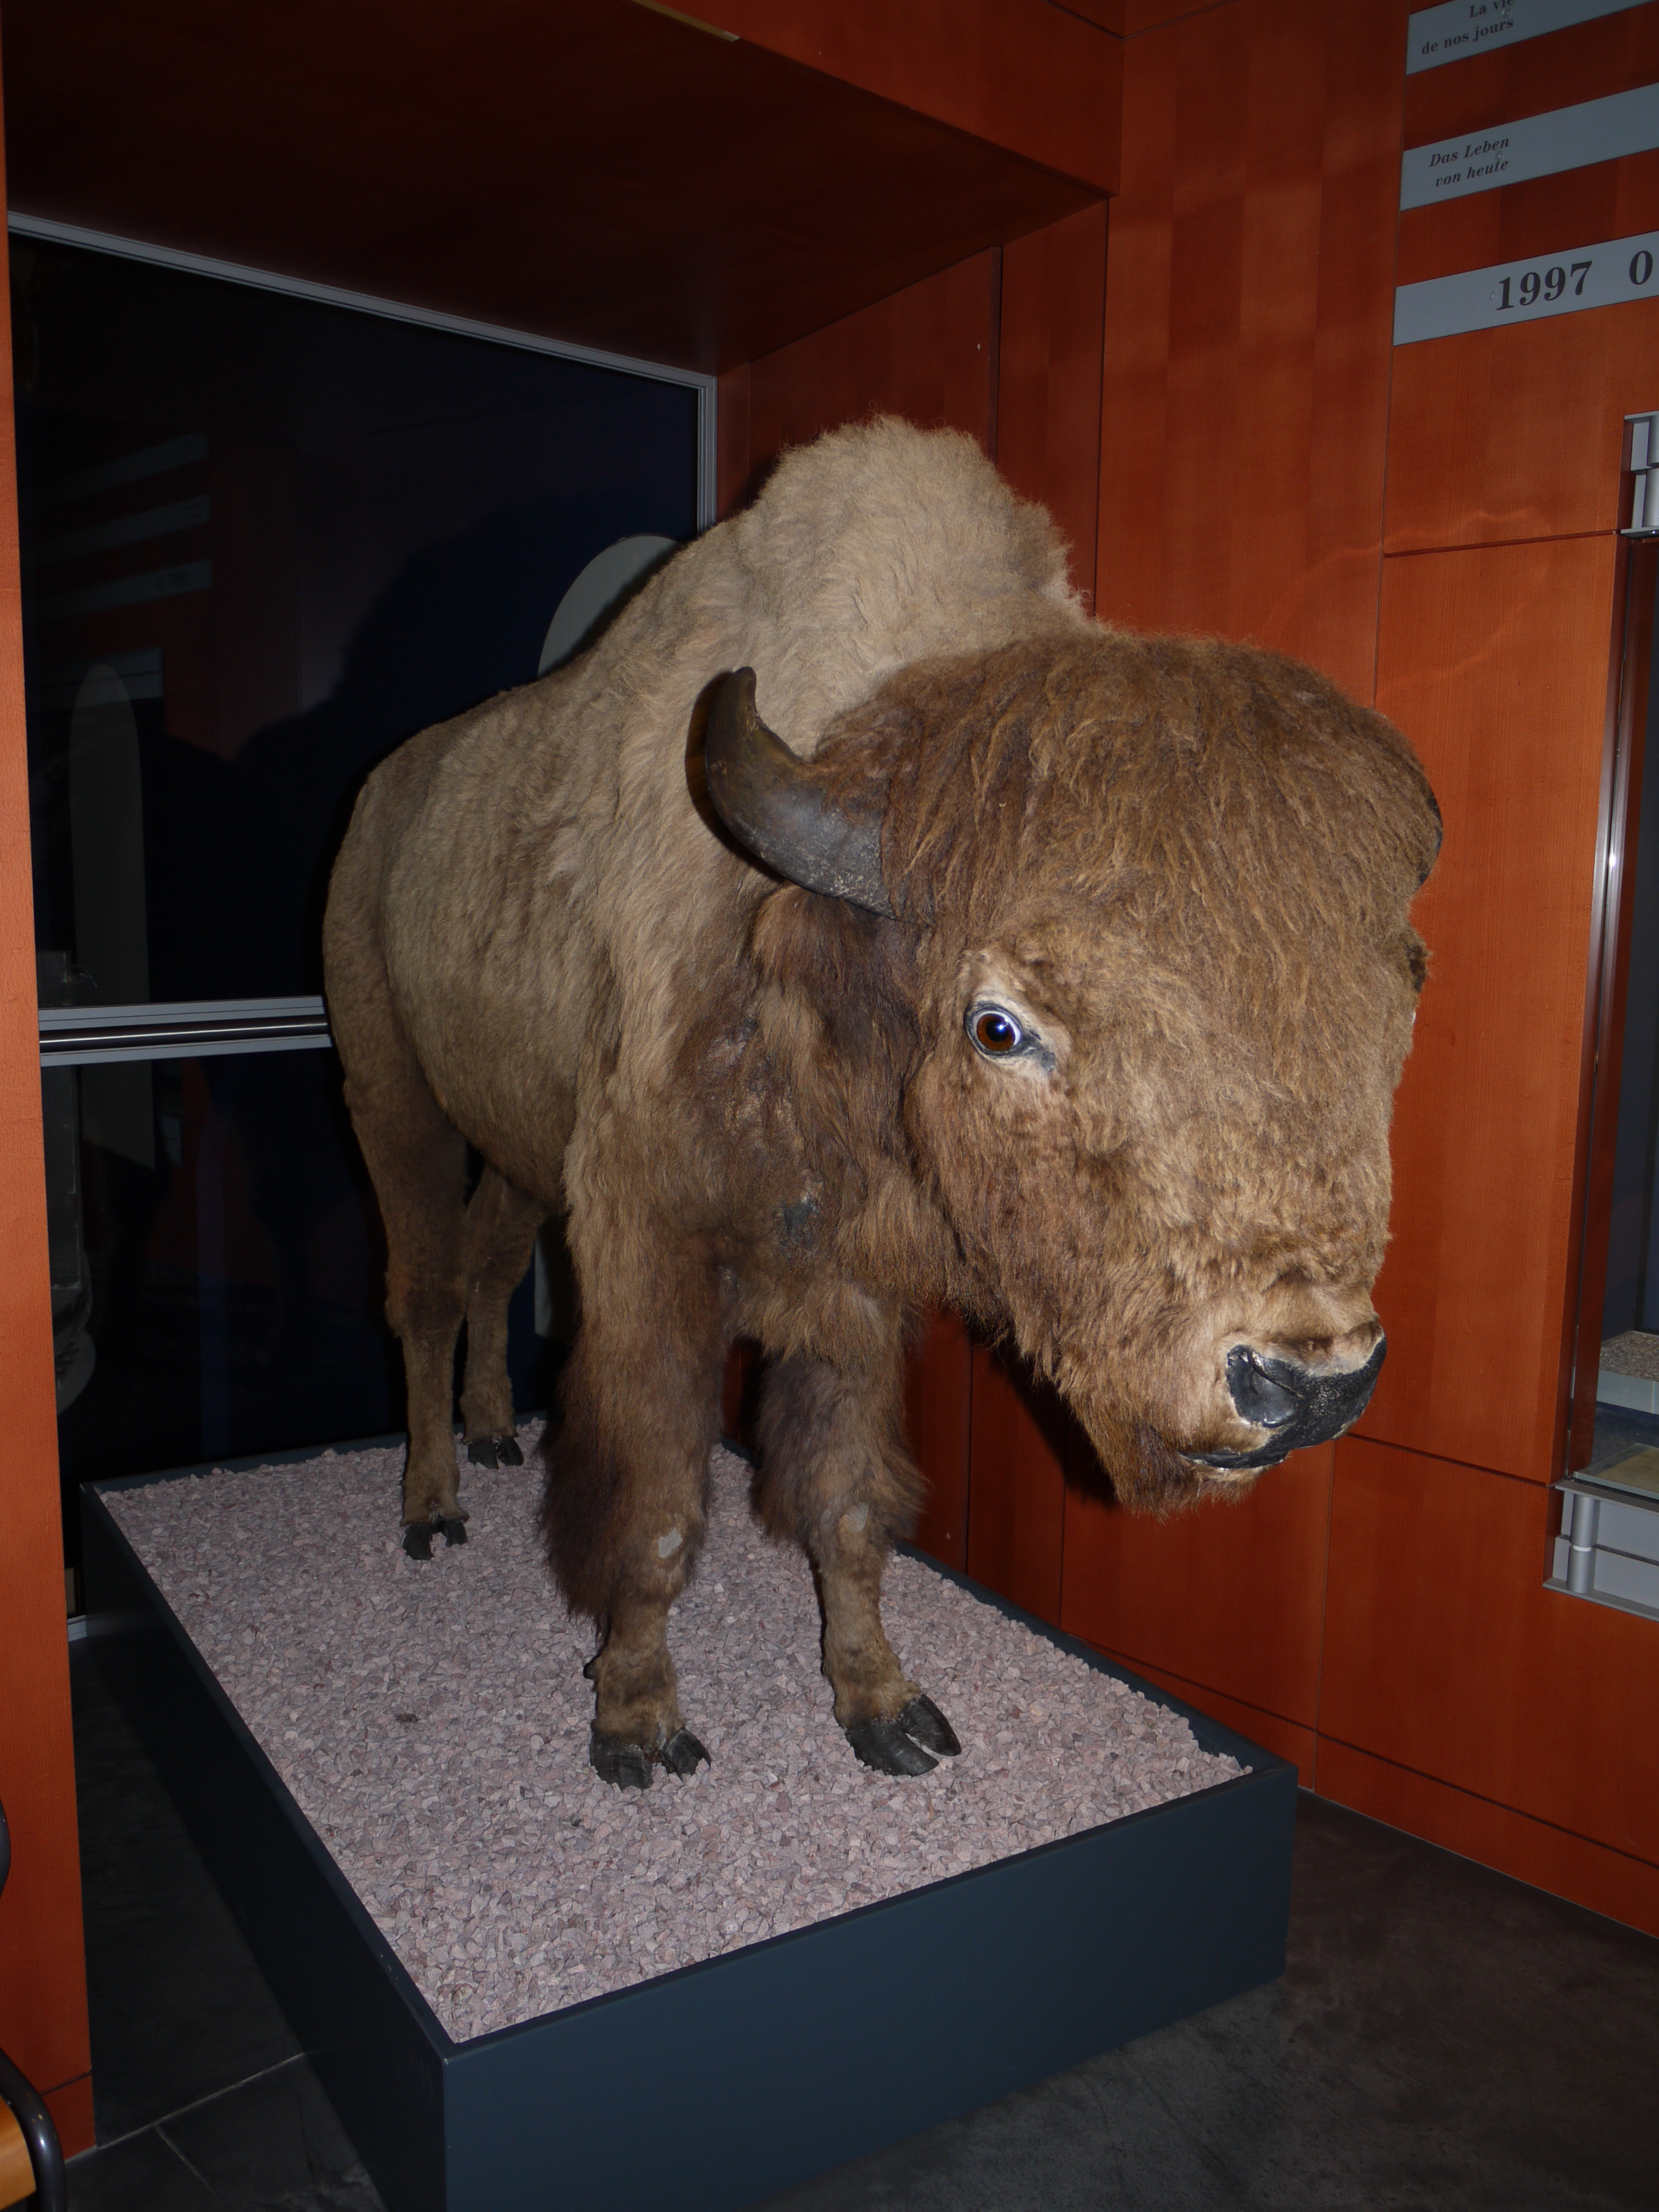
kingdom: Animalia
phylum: Chordata
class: Mammalia
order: Artiodactyla
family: Bovidae
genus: Bison
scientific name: Bison bison
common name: American bison
